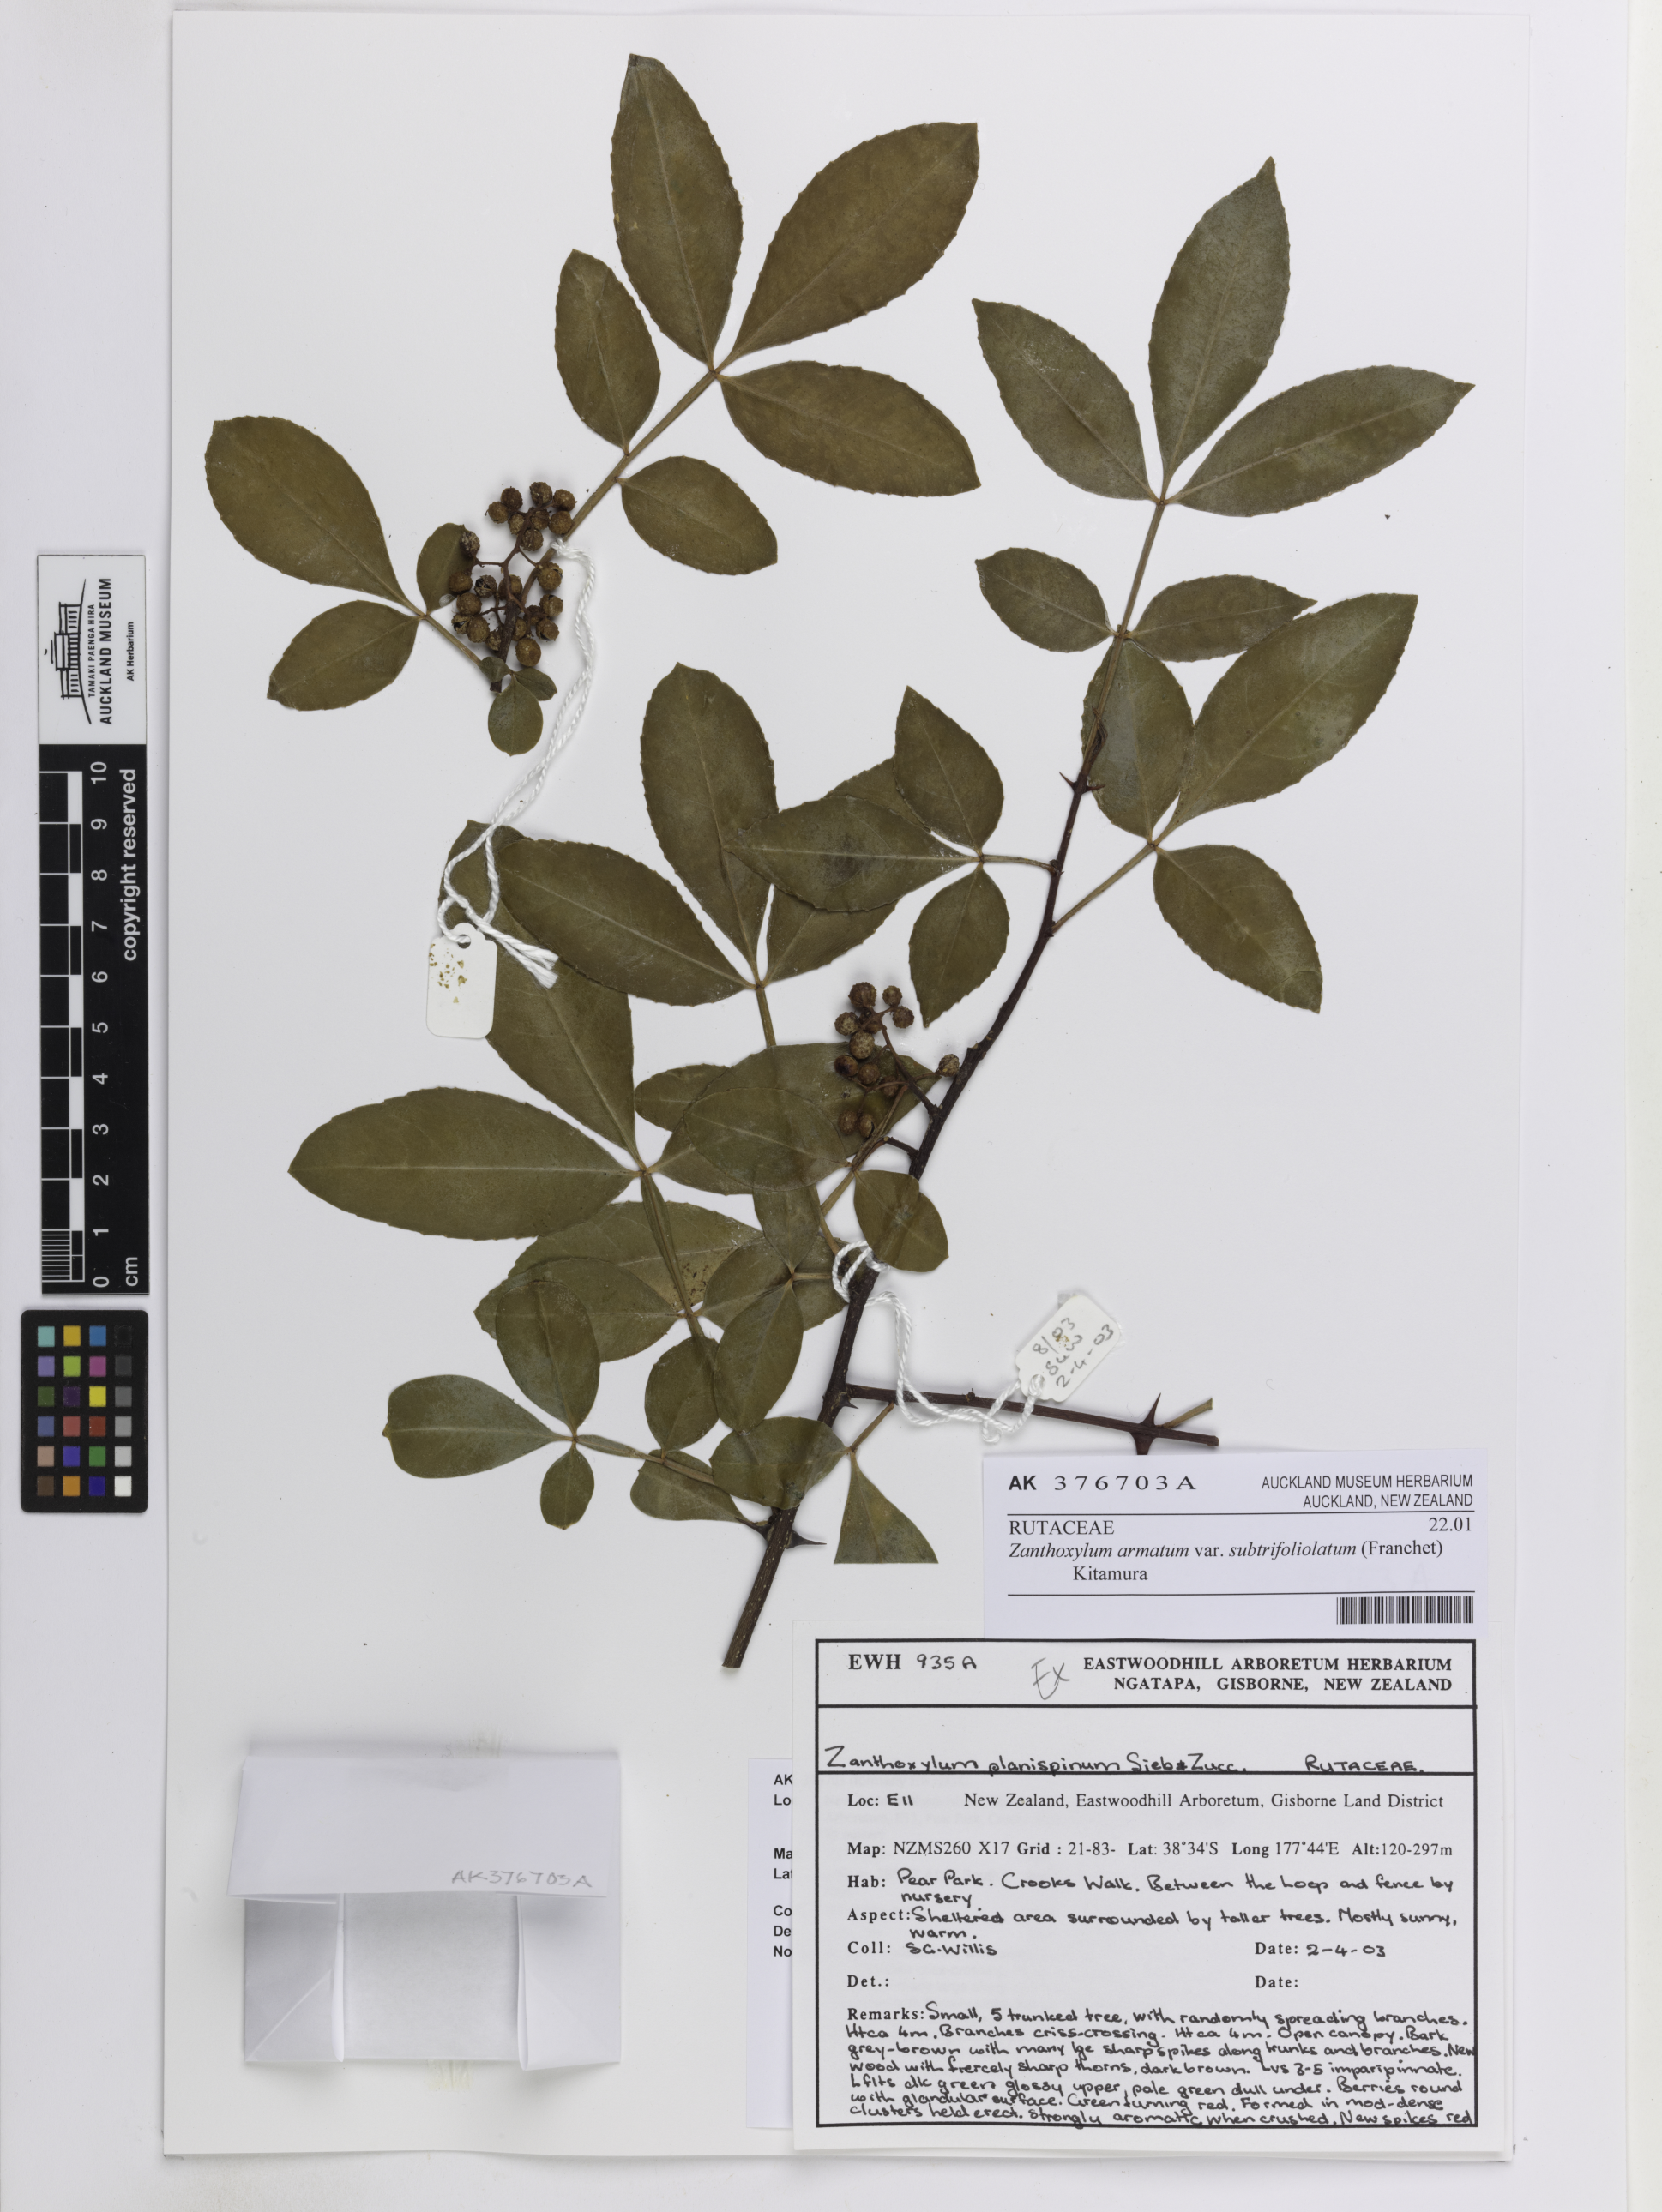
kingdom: Plantae
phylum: Tracheophyta
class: Magnoliopsida
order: Sapindales
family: Rutaceae
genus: Zanthoxylum
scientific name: Zanthoxylum armatum
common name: Winged prickly-ash
